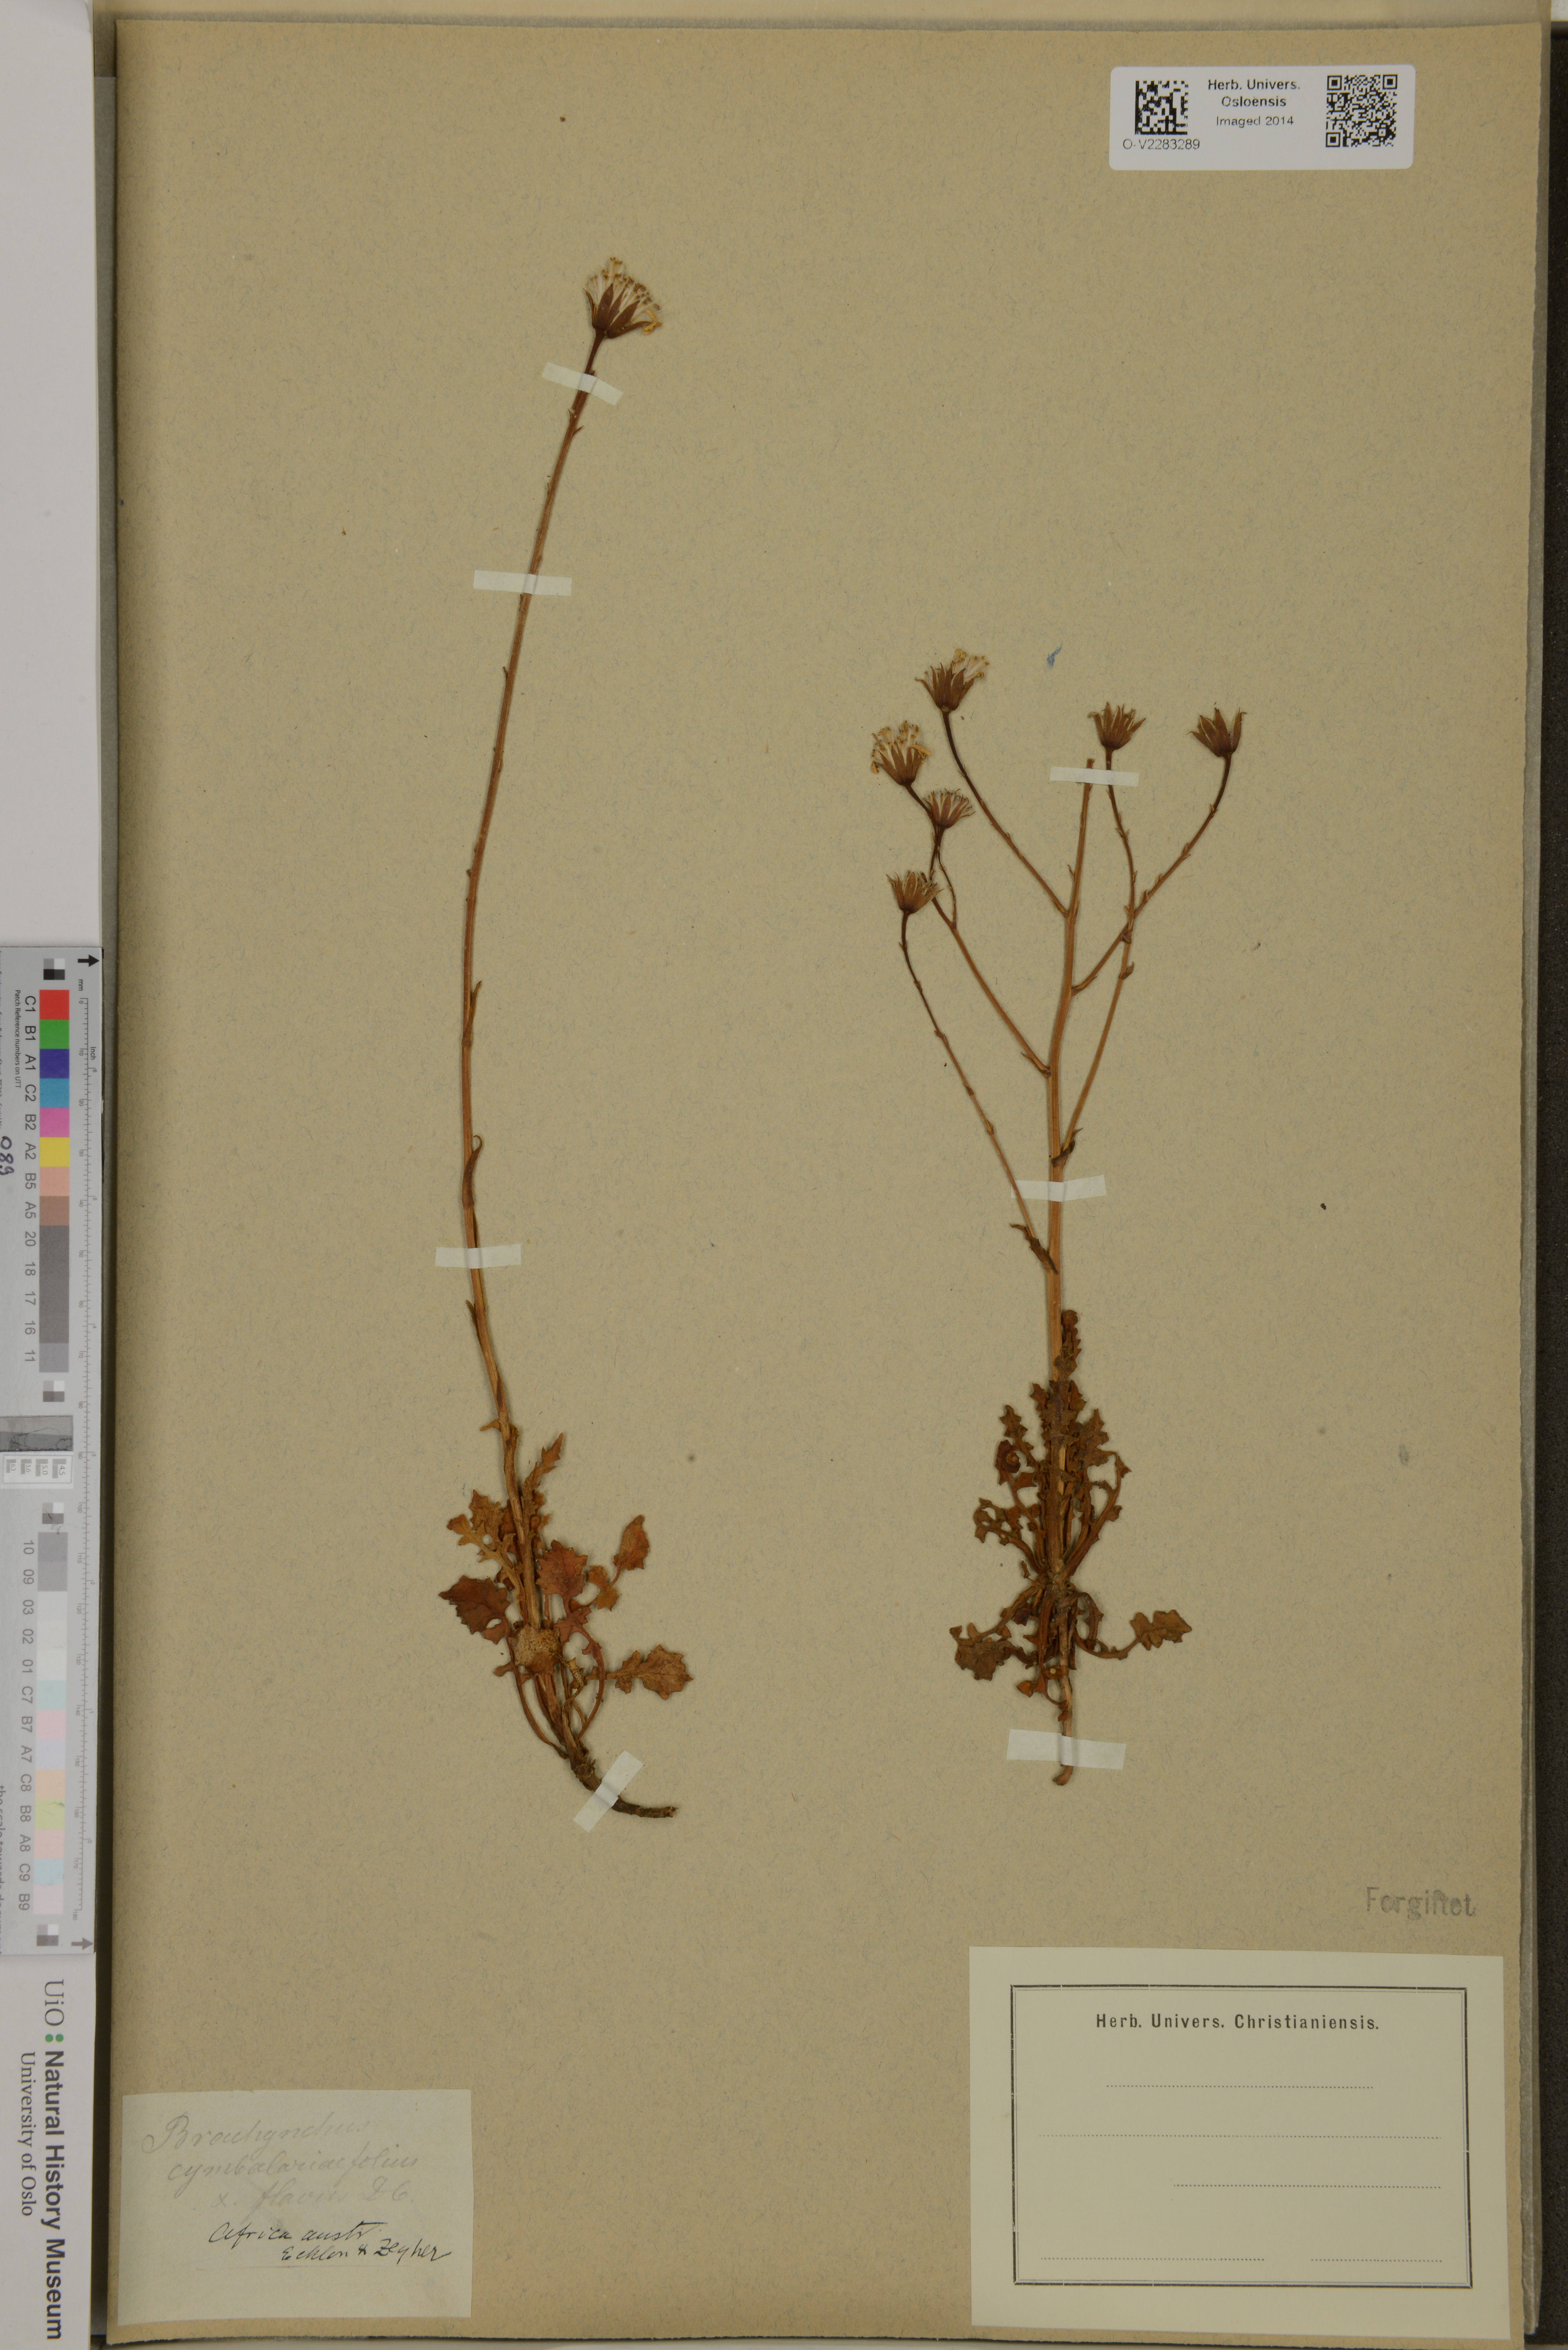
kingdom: Plantae
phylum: Tracheophyta
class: Magnoliopsida
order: Asterales
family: Asteraceae
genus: Senecio
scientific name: Senecio cymbalariifolius
